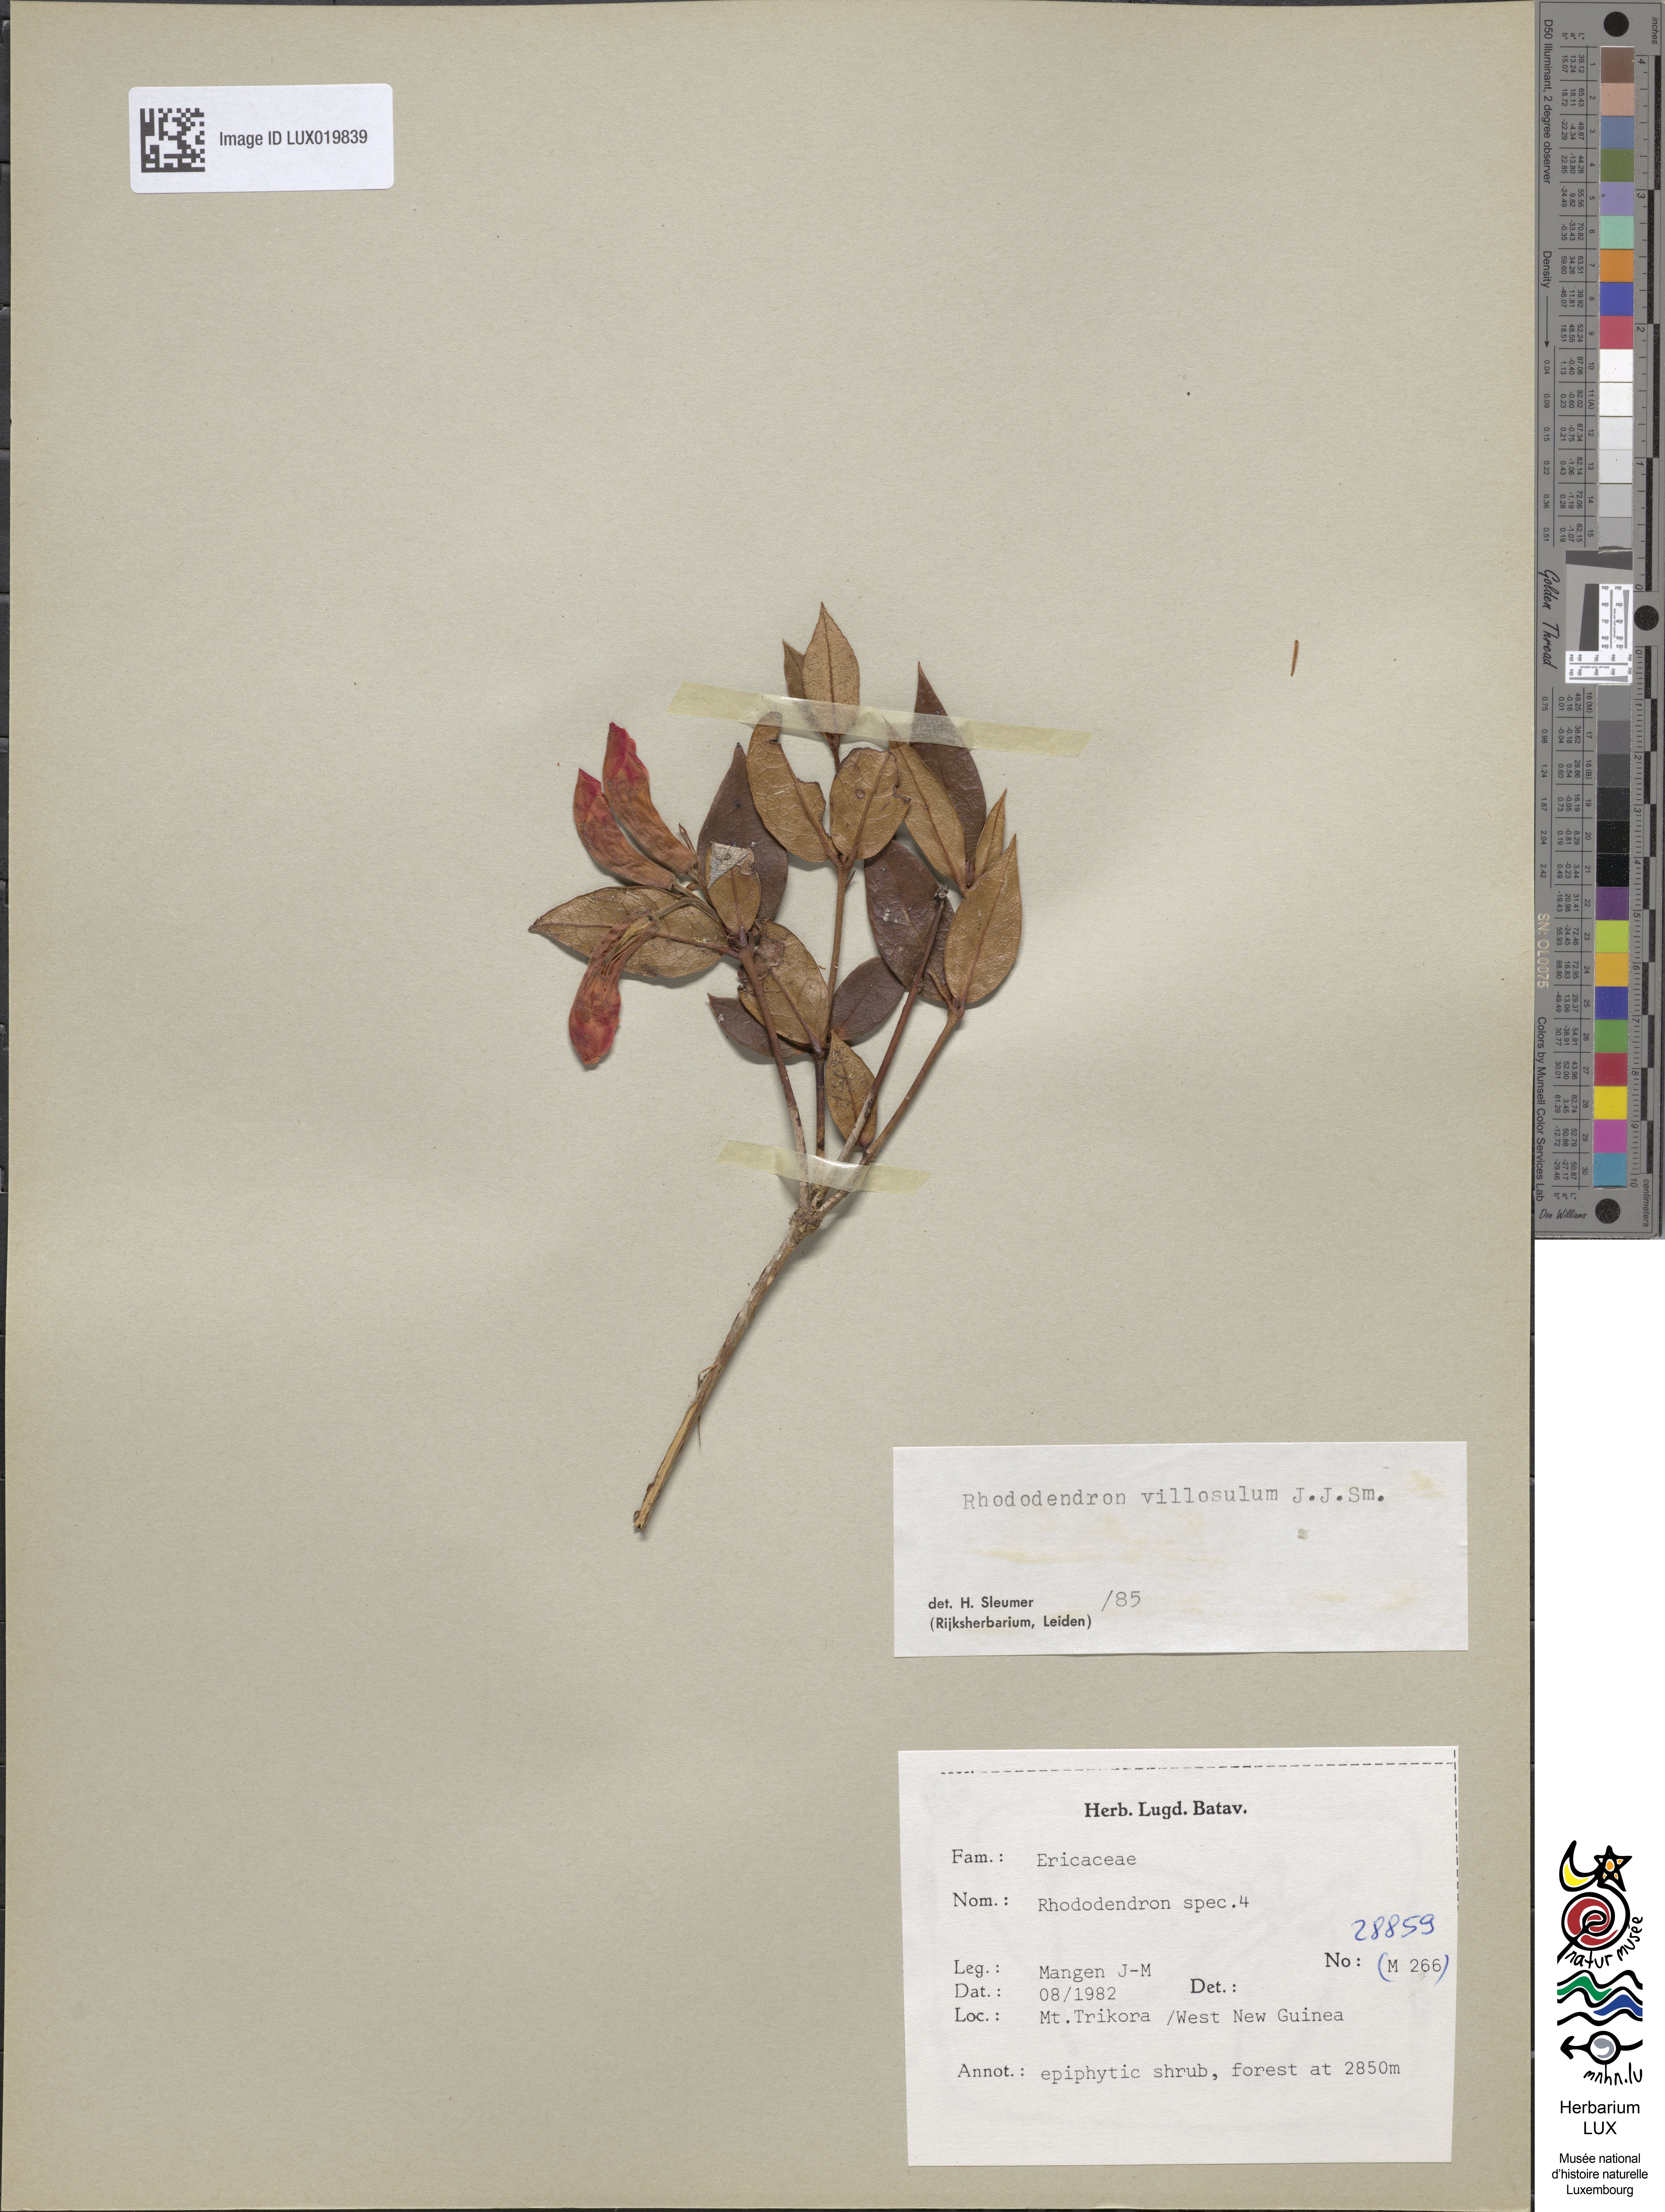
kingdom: Plantae
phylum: Tracheophyta
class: Magnoliopsida
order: Ericales
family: Ericaceae
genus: Rhododendron
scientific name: Rhododendron
